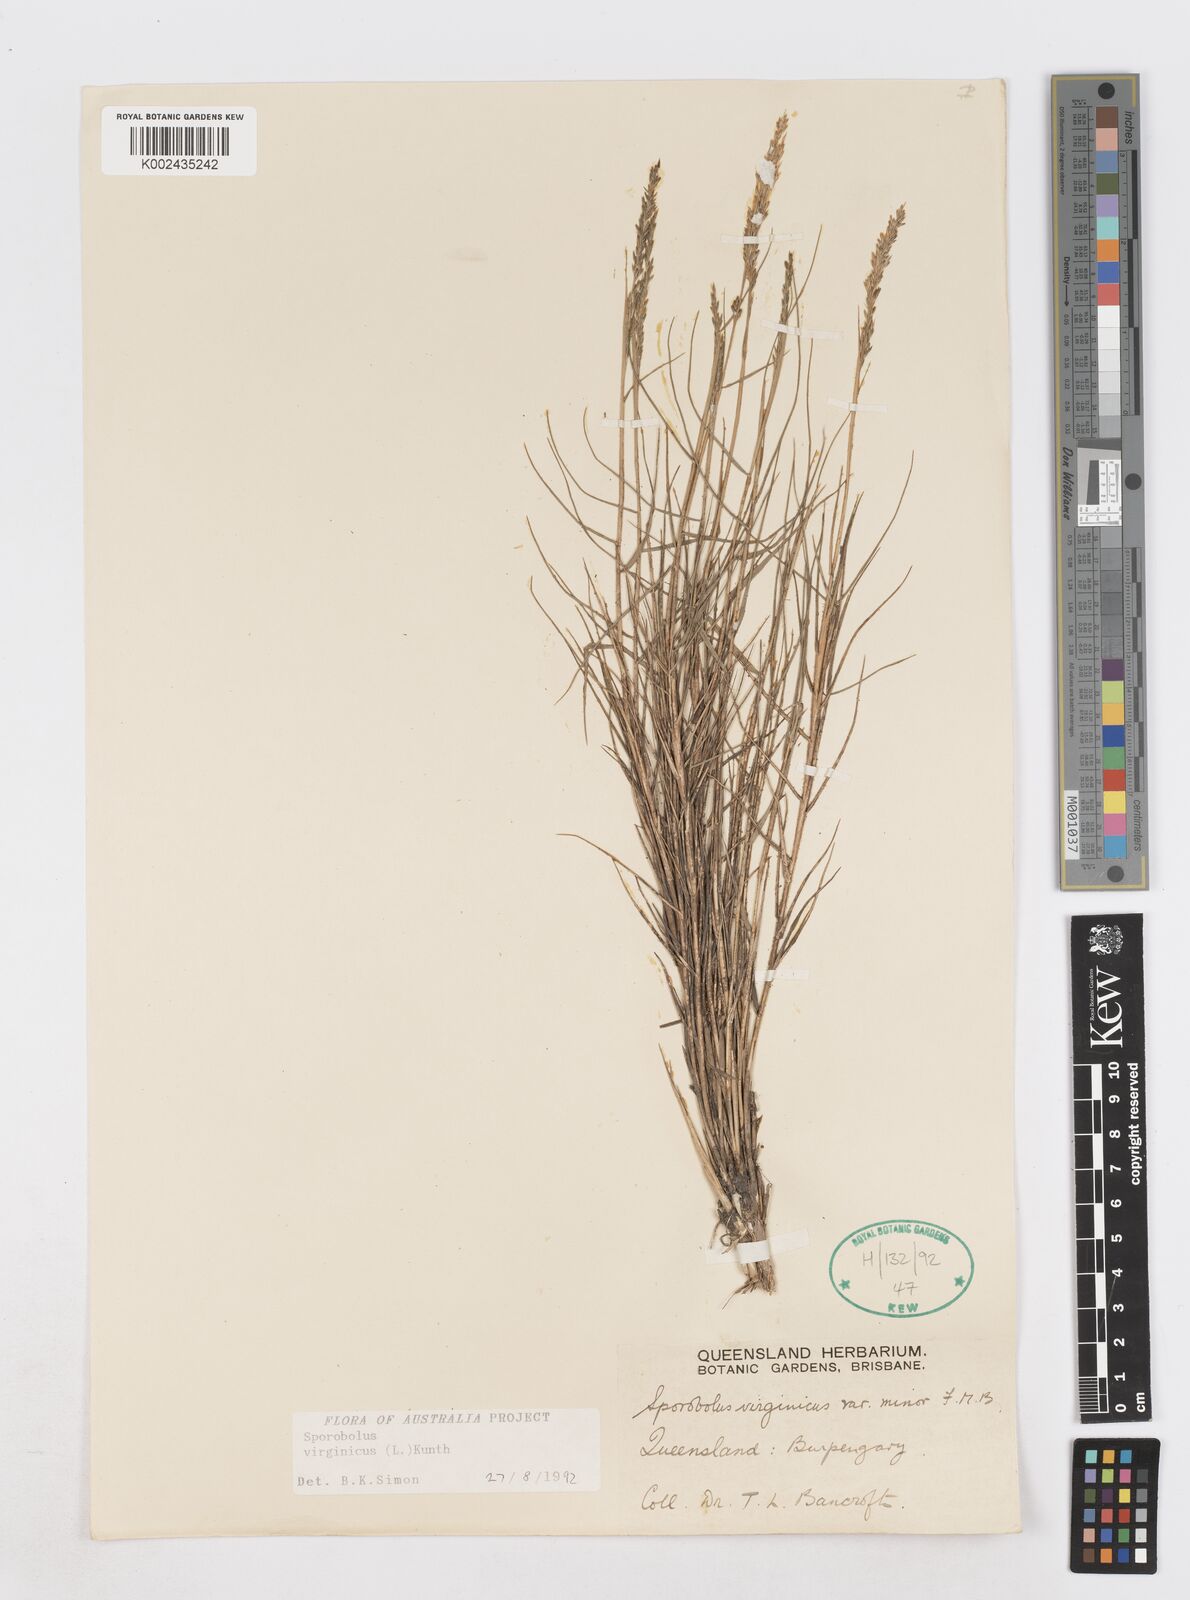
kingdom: Plantae
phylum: Tracheophyta
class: Liliopsida
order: Poales
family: Poaceae
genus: Sporobolus
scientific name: Sporobolus virginicus
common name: Beach dropseed
